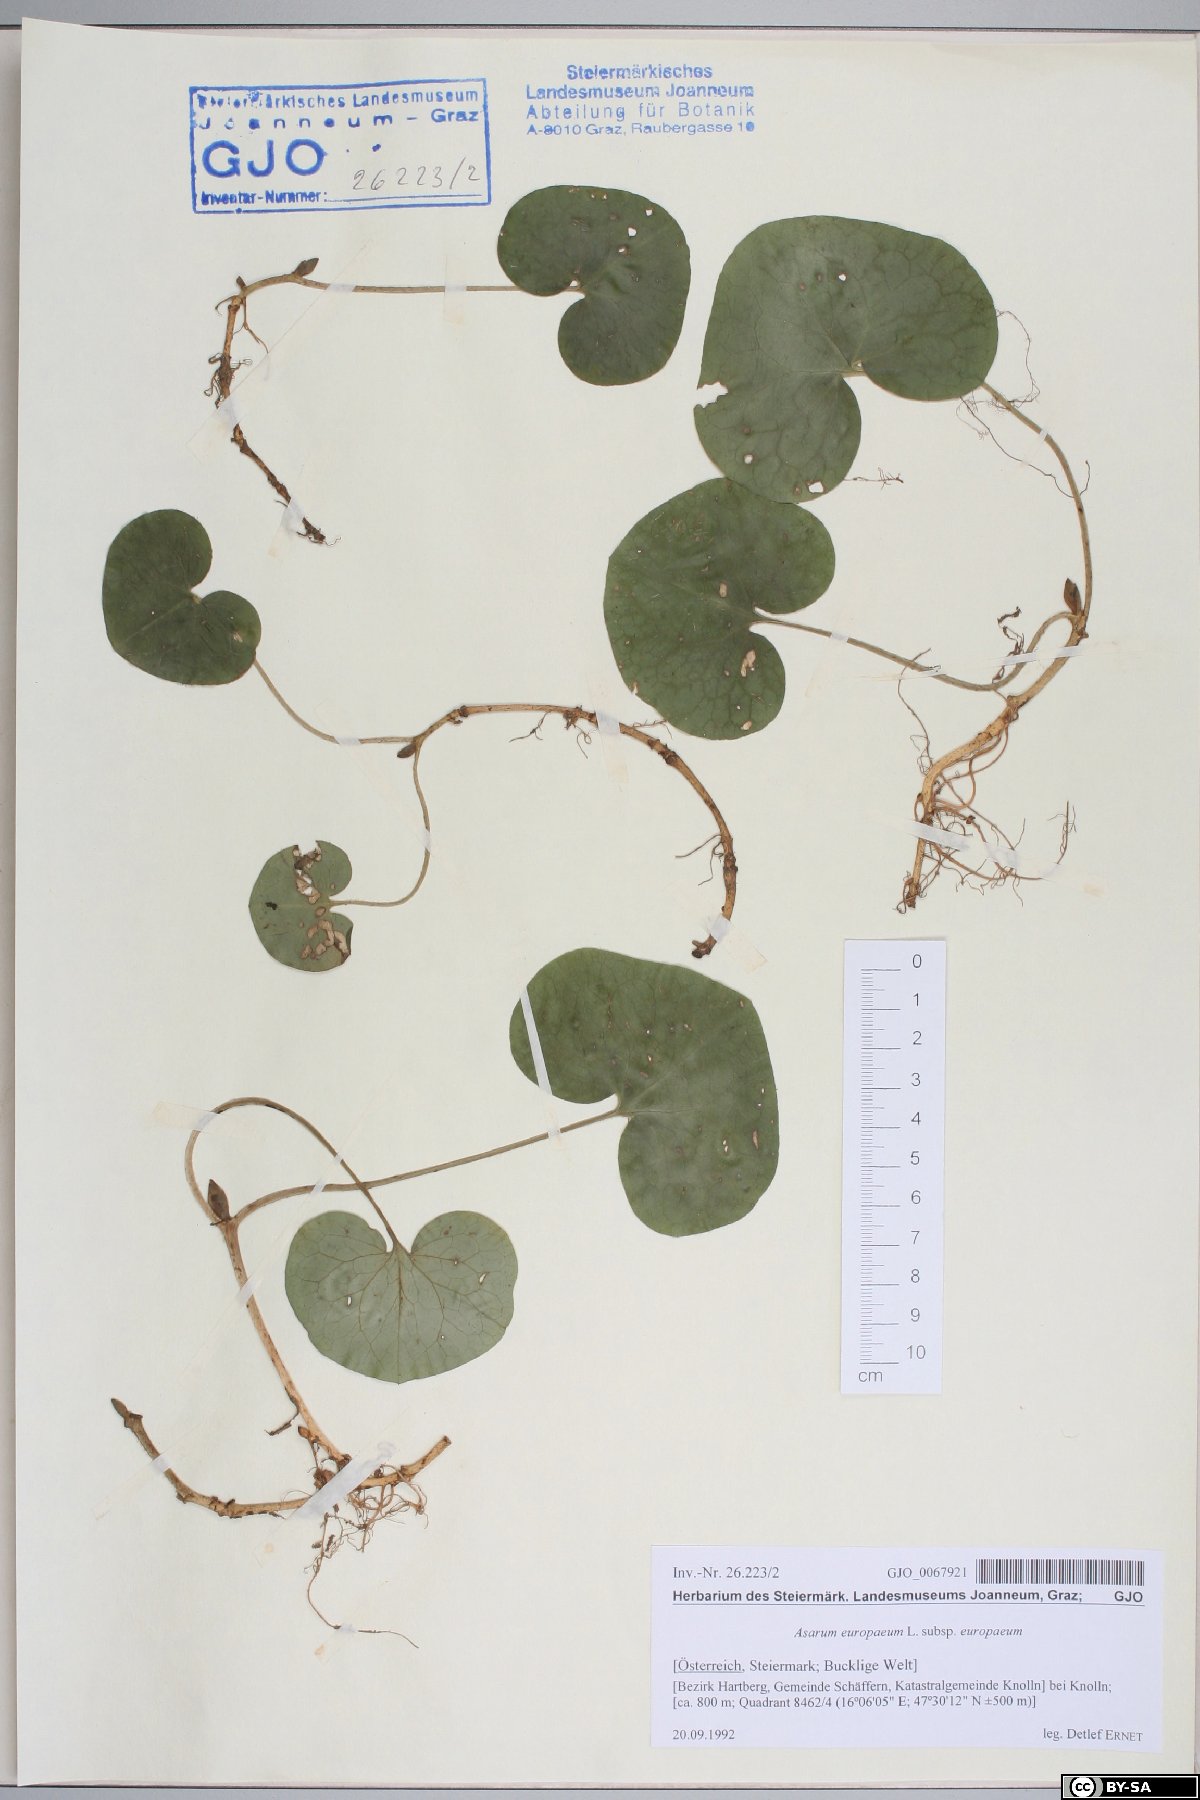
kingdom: Plantae
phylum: Tracheophyta
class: Magnoliopsida
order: Piperales
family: Aristolochiaceae
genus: Asarum
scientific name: Asarum europaeum
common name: Asarabacca
